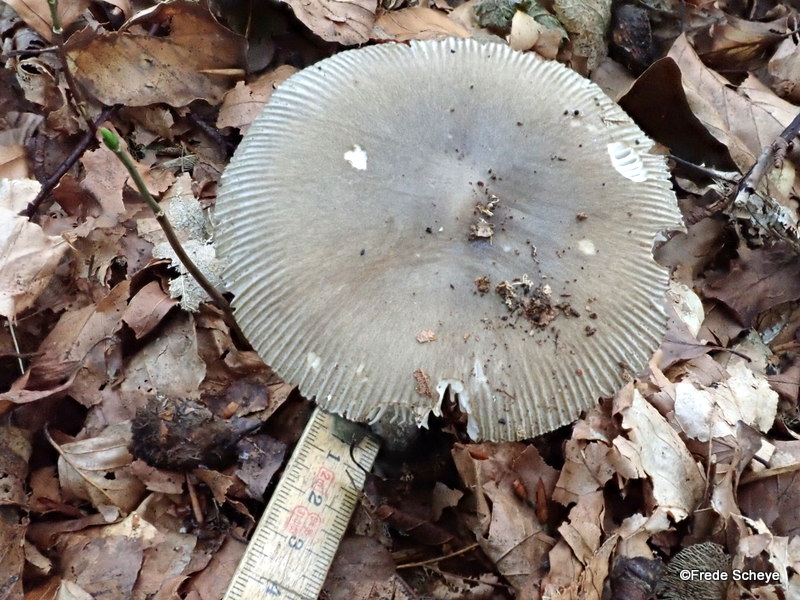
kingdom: Fungi
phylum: Basidiomycota
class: Agaricomycetes
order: Agaricales
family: Amanitaceae
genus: Amanita
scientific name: Amanita vaginata
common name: grå kam-fluesvamp
